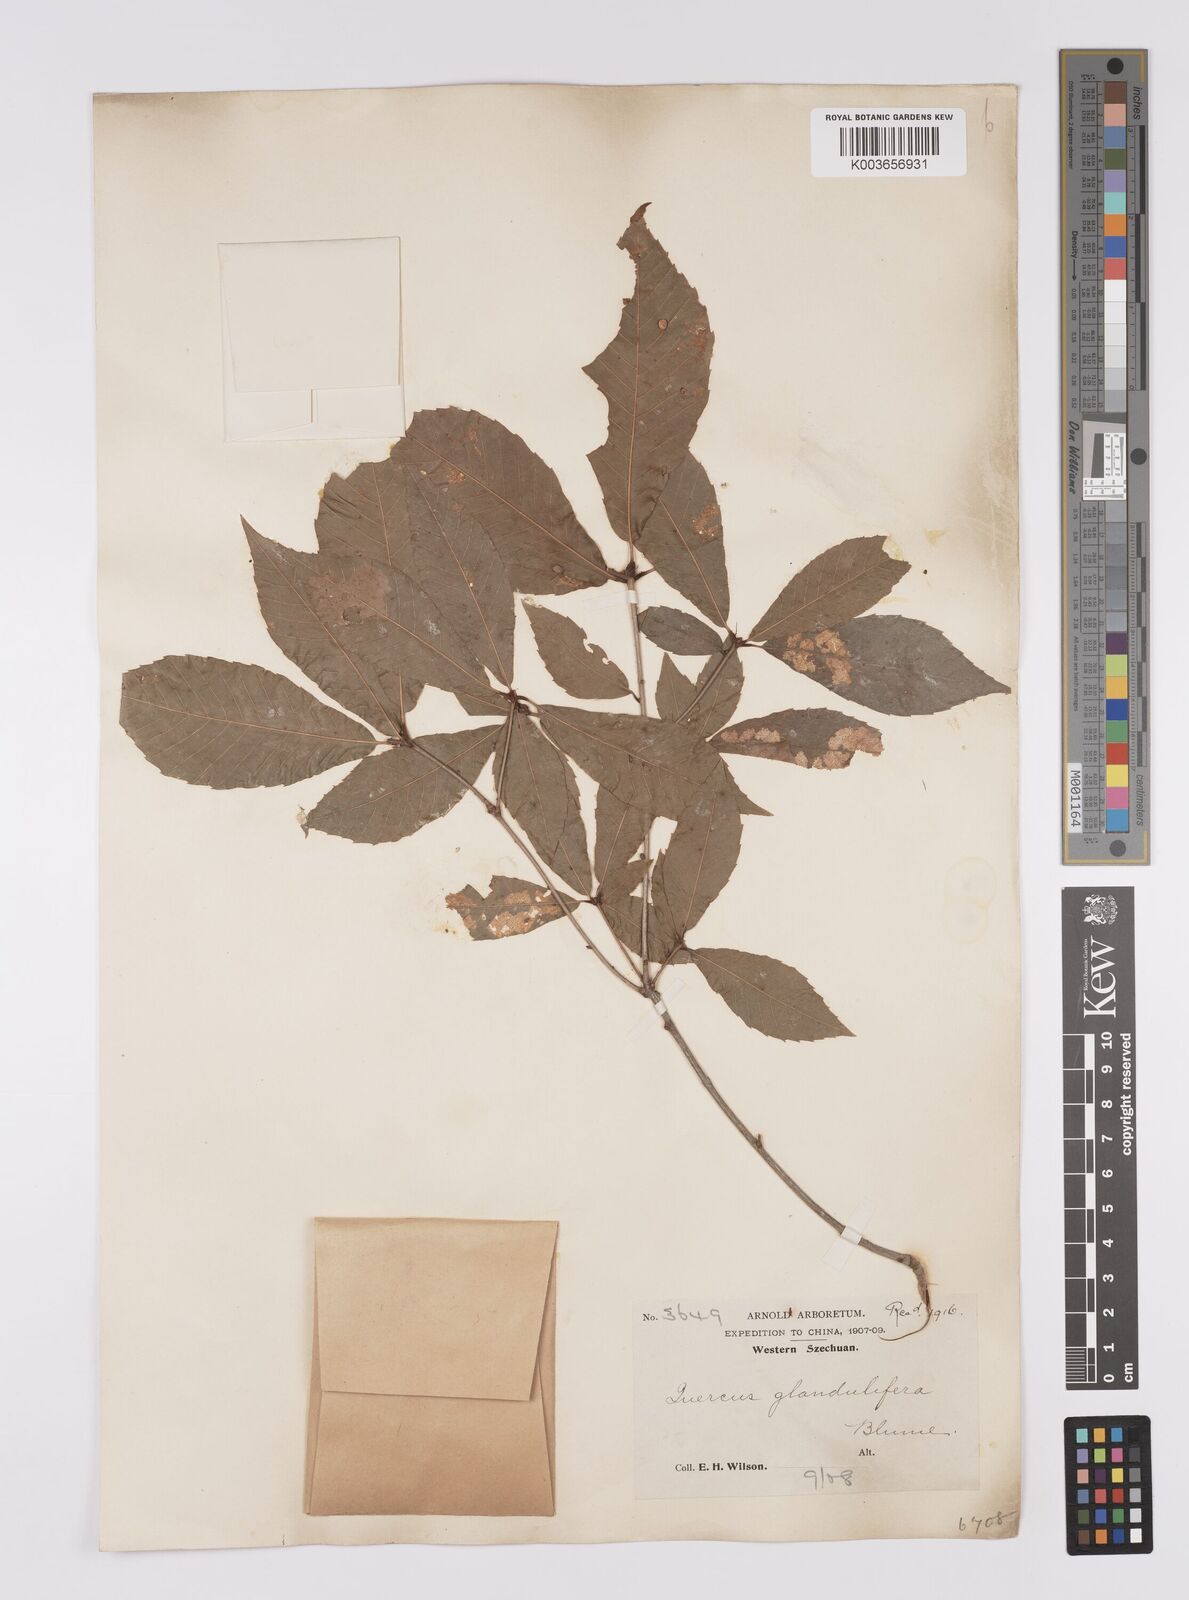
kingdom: Plantae
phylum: Tracheophyta
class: Magnoliopsida
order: Fagales
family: Fagaceae
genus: Quercus
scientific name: Quercus serrata
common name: Bao li
